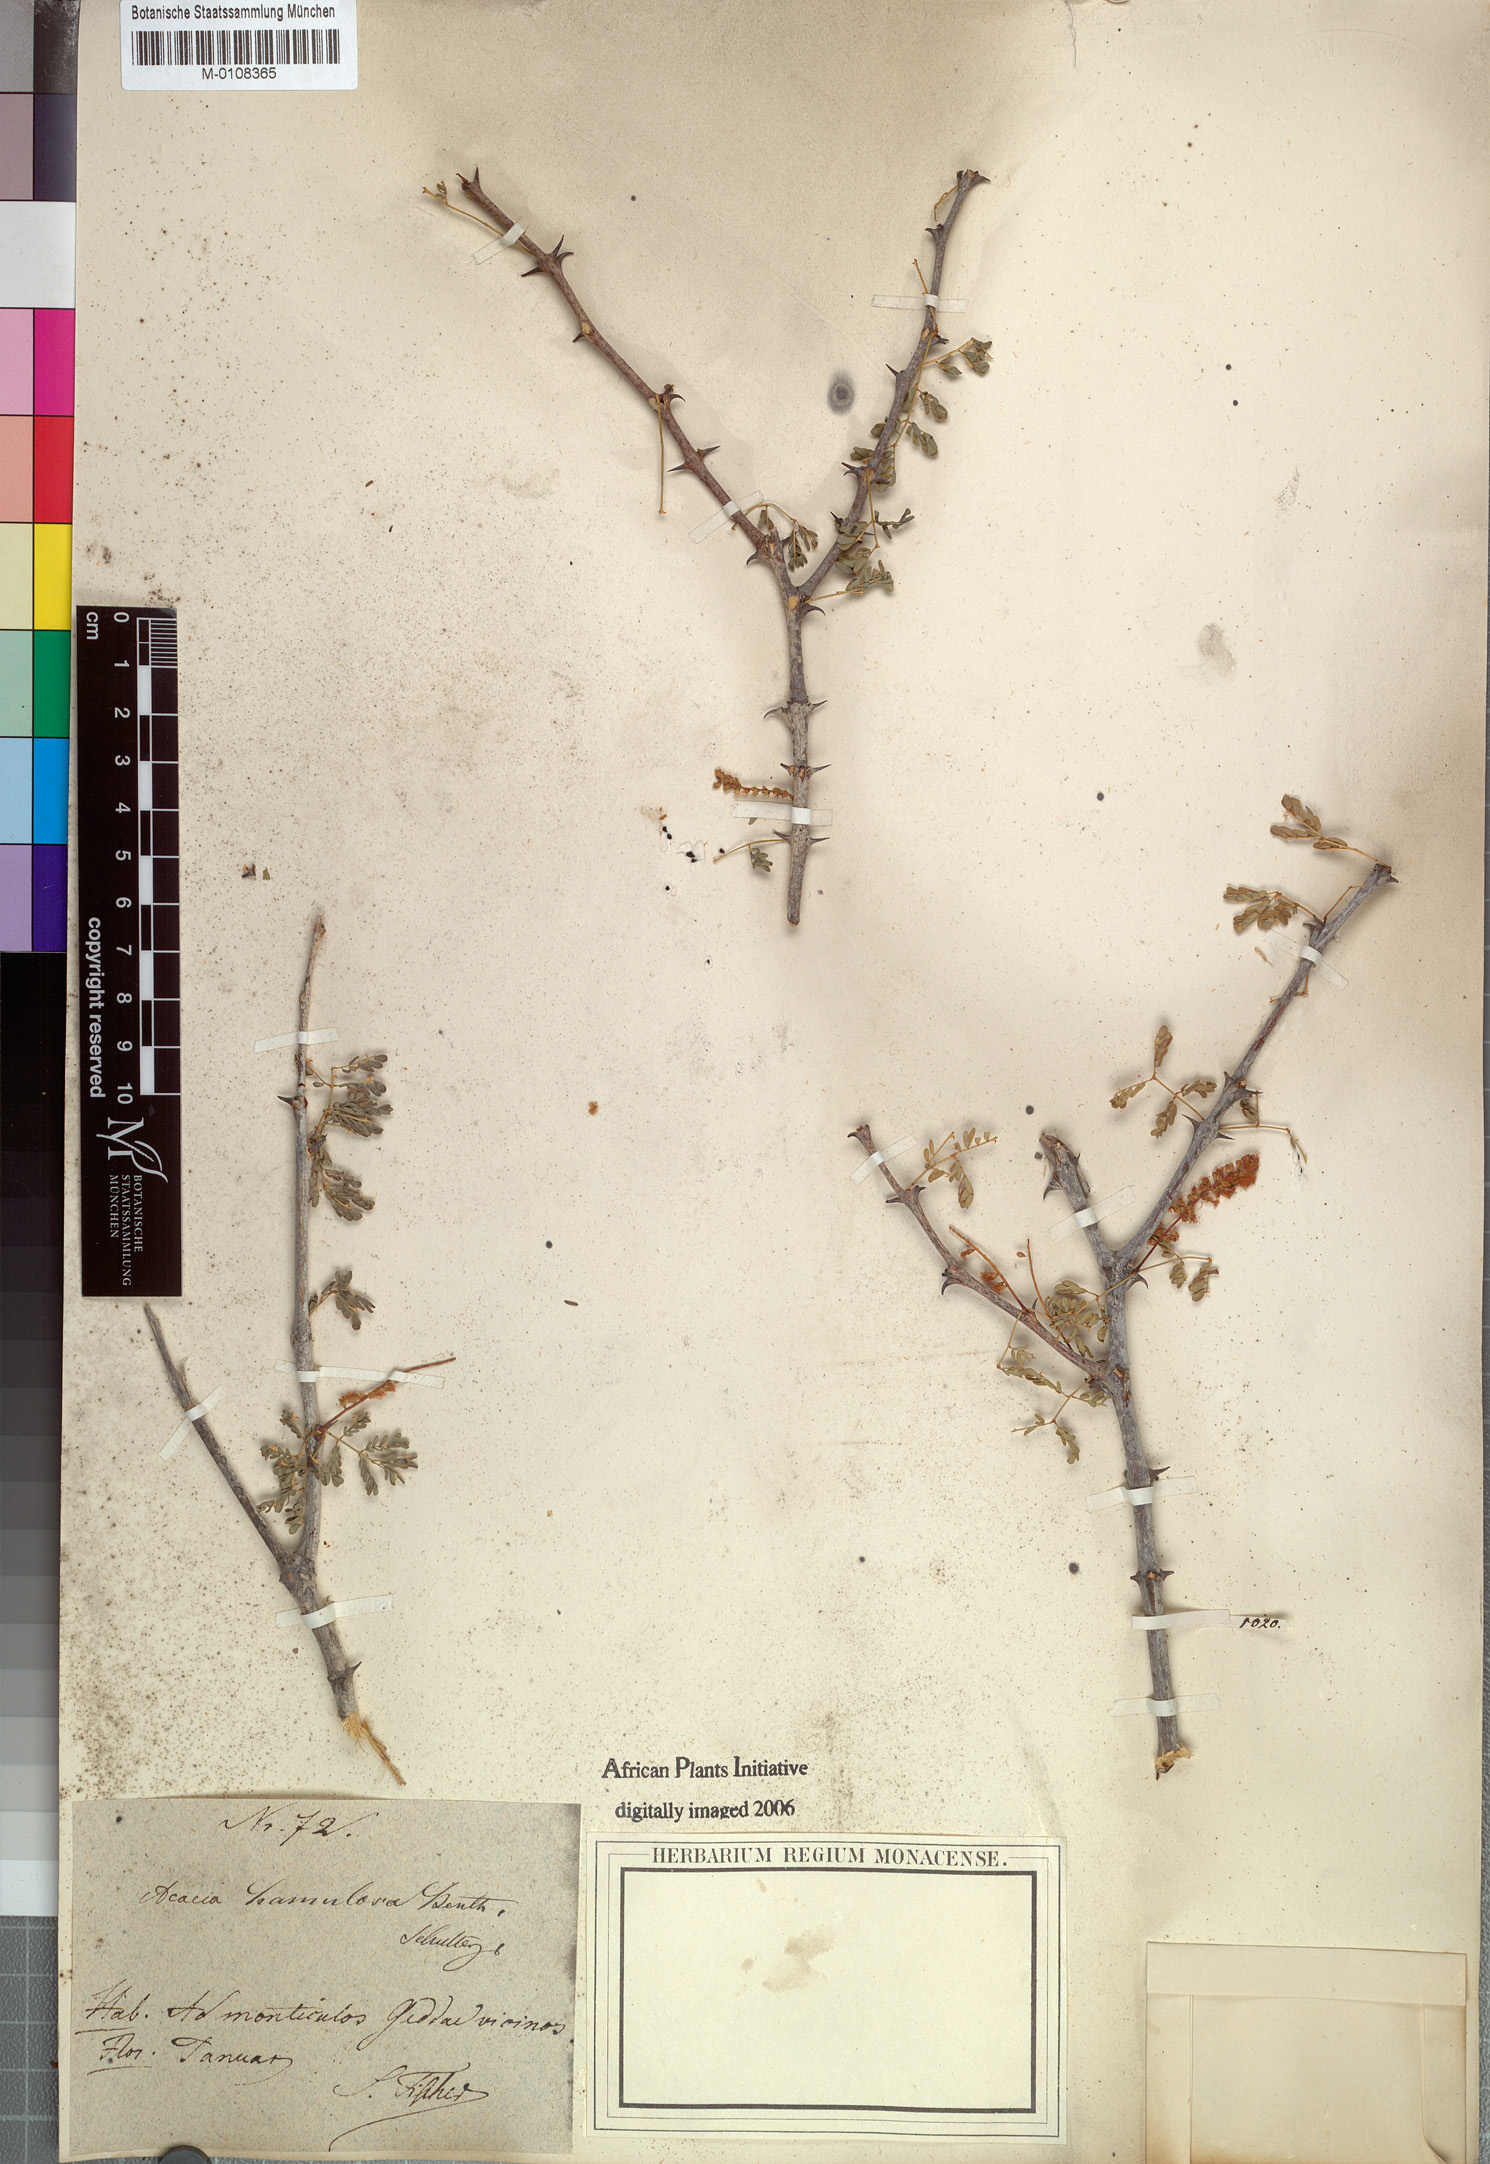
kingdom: Plantae
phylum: Tracheophyta
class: Magnoliopsida
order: Fabales
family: Fabaceae
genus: Senegalia
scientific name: Senegalia hamulosa
